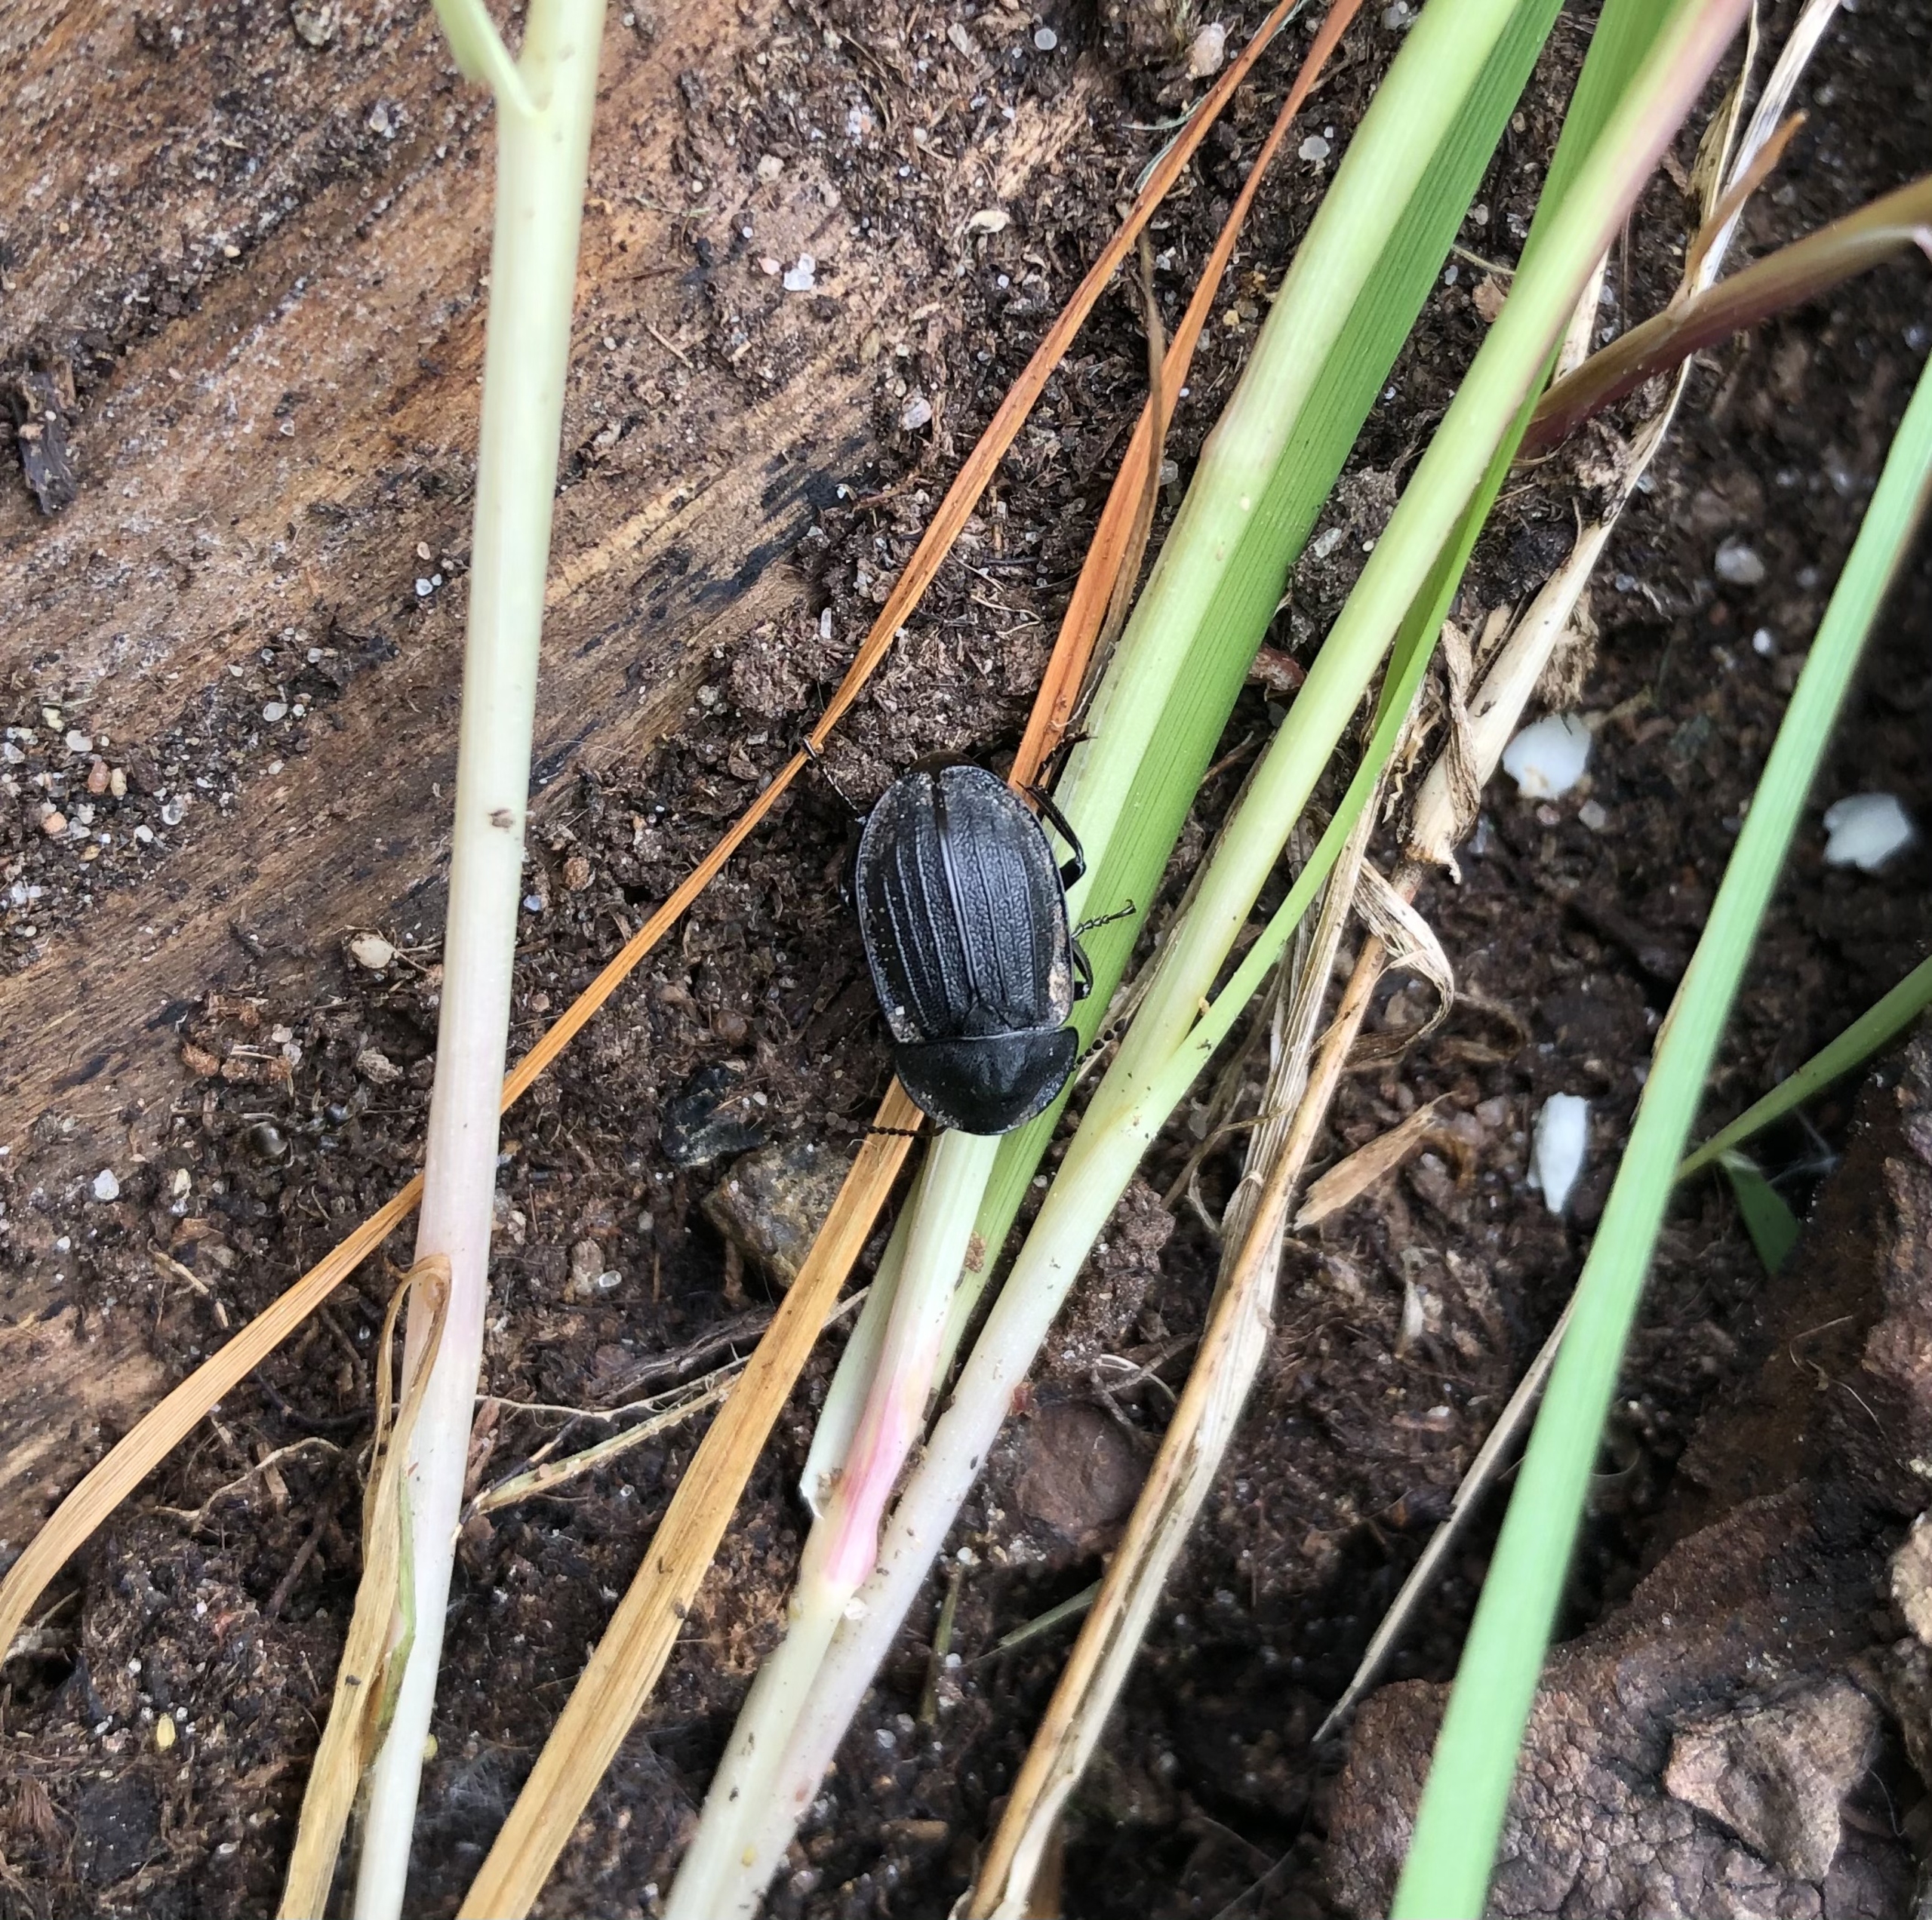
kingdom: Animalia
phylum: Arthropoda
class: Insecta
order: Coleoptera
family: Staphylinidae
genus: Silpha
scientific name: Silpha atrata
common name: Snegleådselbille
